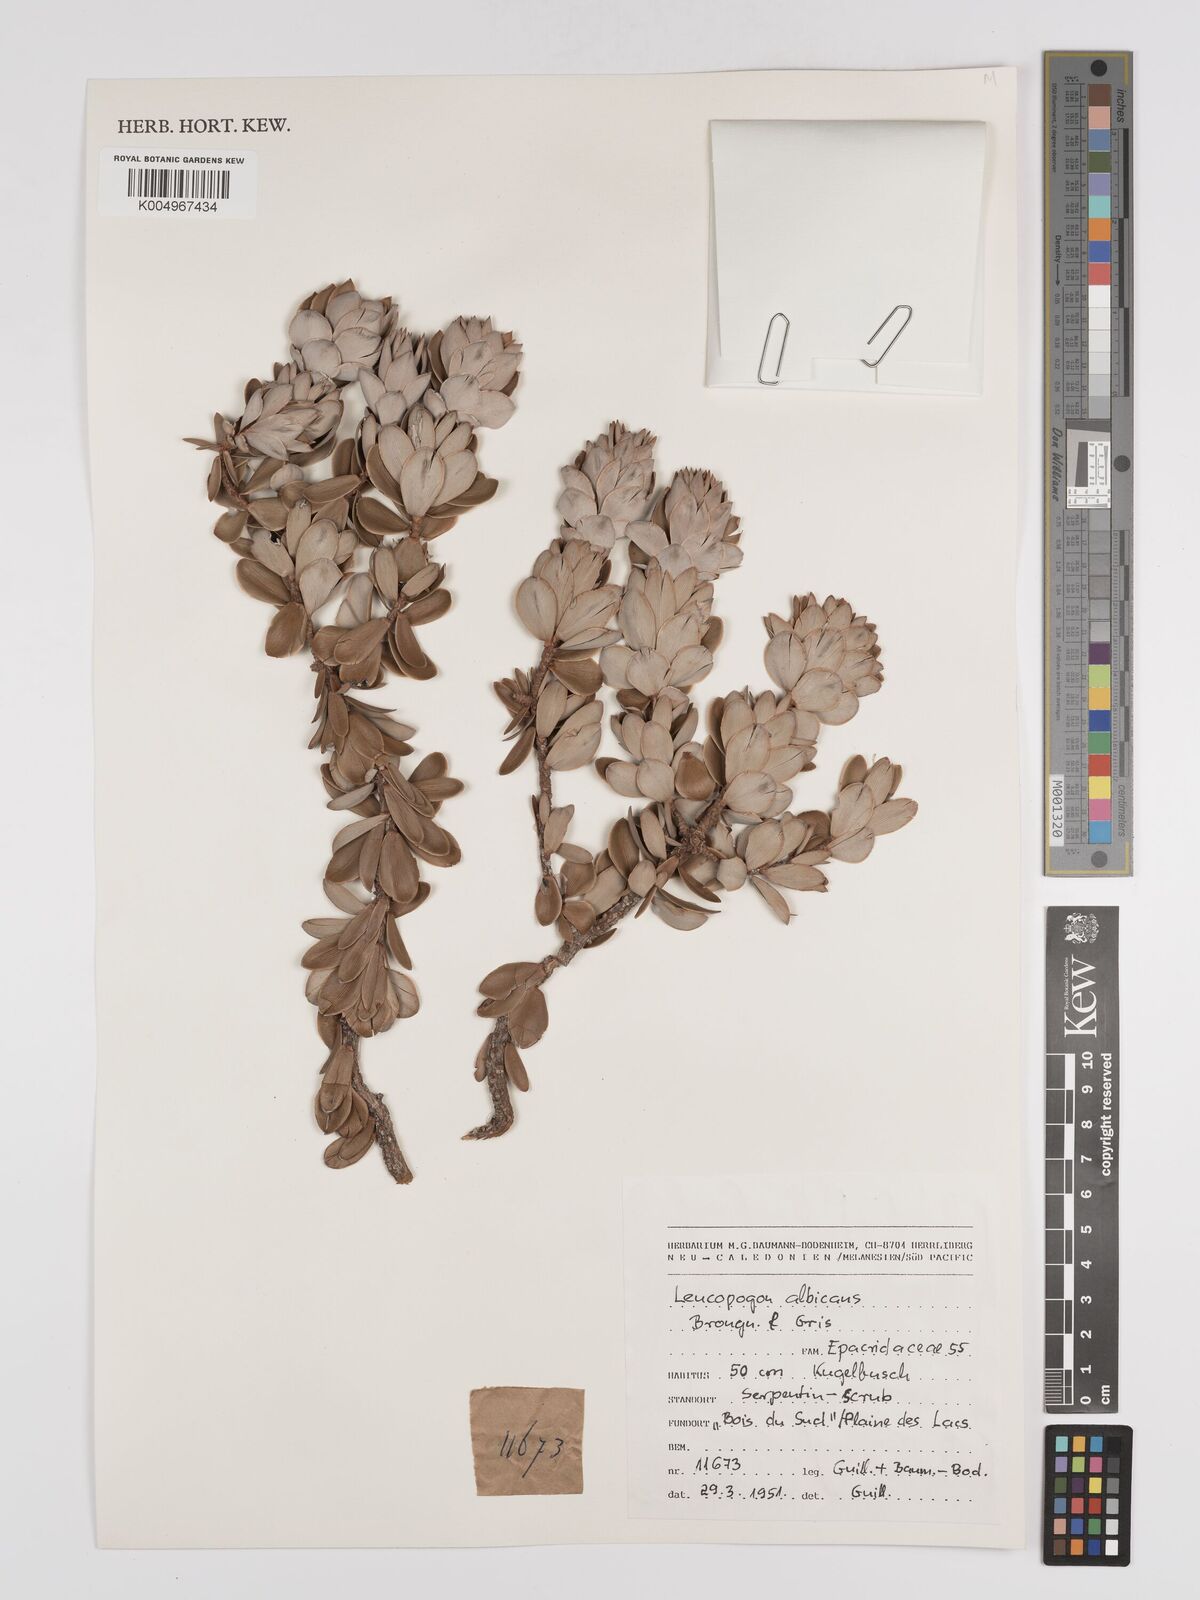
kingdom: Plantae
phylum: Tracheophyta
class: Magnoliopsida
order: Ericales
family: Ericaceae
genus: Cyathopsis
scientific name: Cyathopsis albicans
